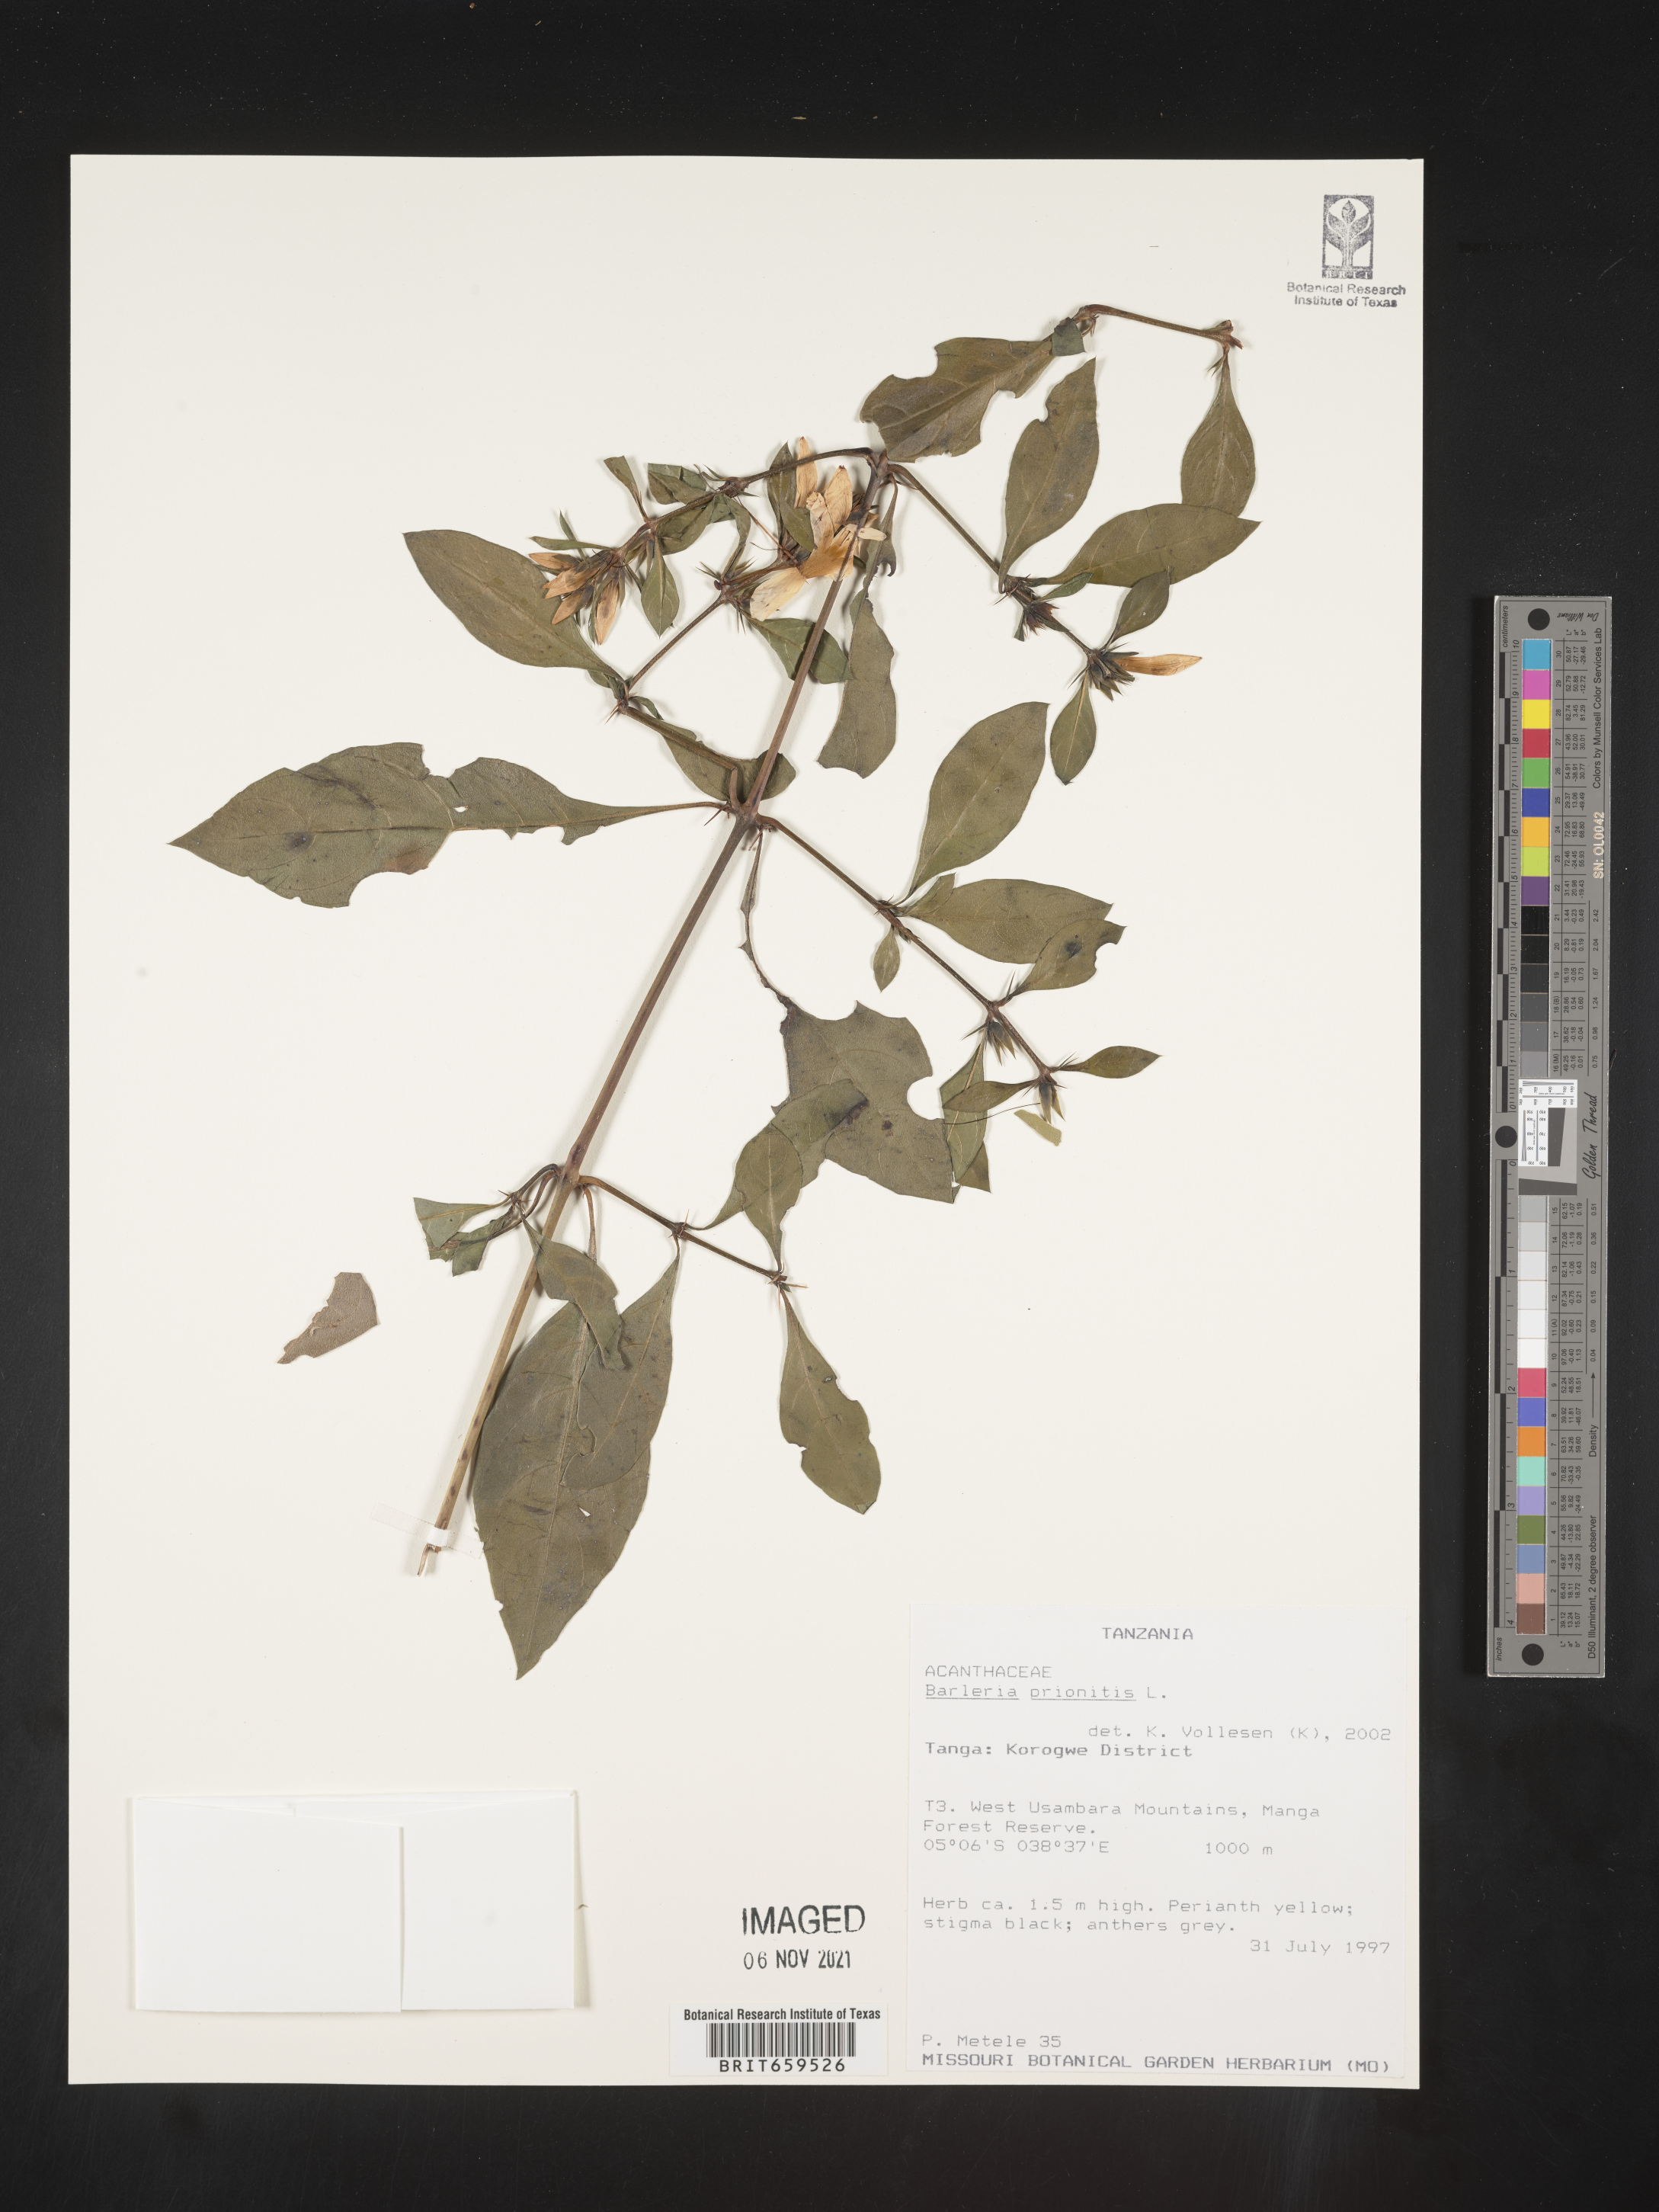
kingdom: Plantae
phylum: Tracheophyta
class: Magnoliopsida
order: Lamiales
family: Acanthaceae
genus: Barleria
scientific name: Barleria prionitis
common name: Barleria
